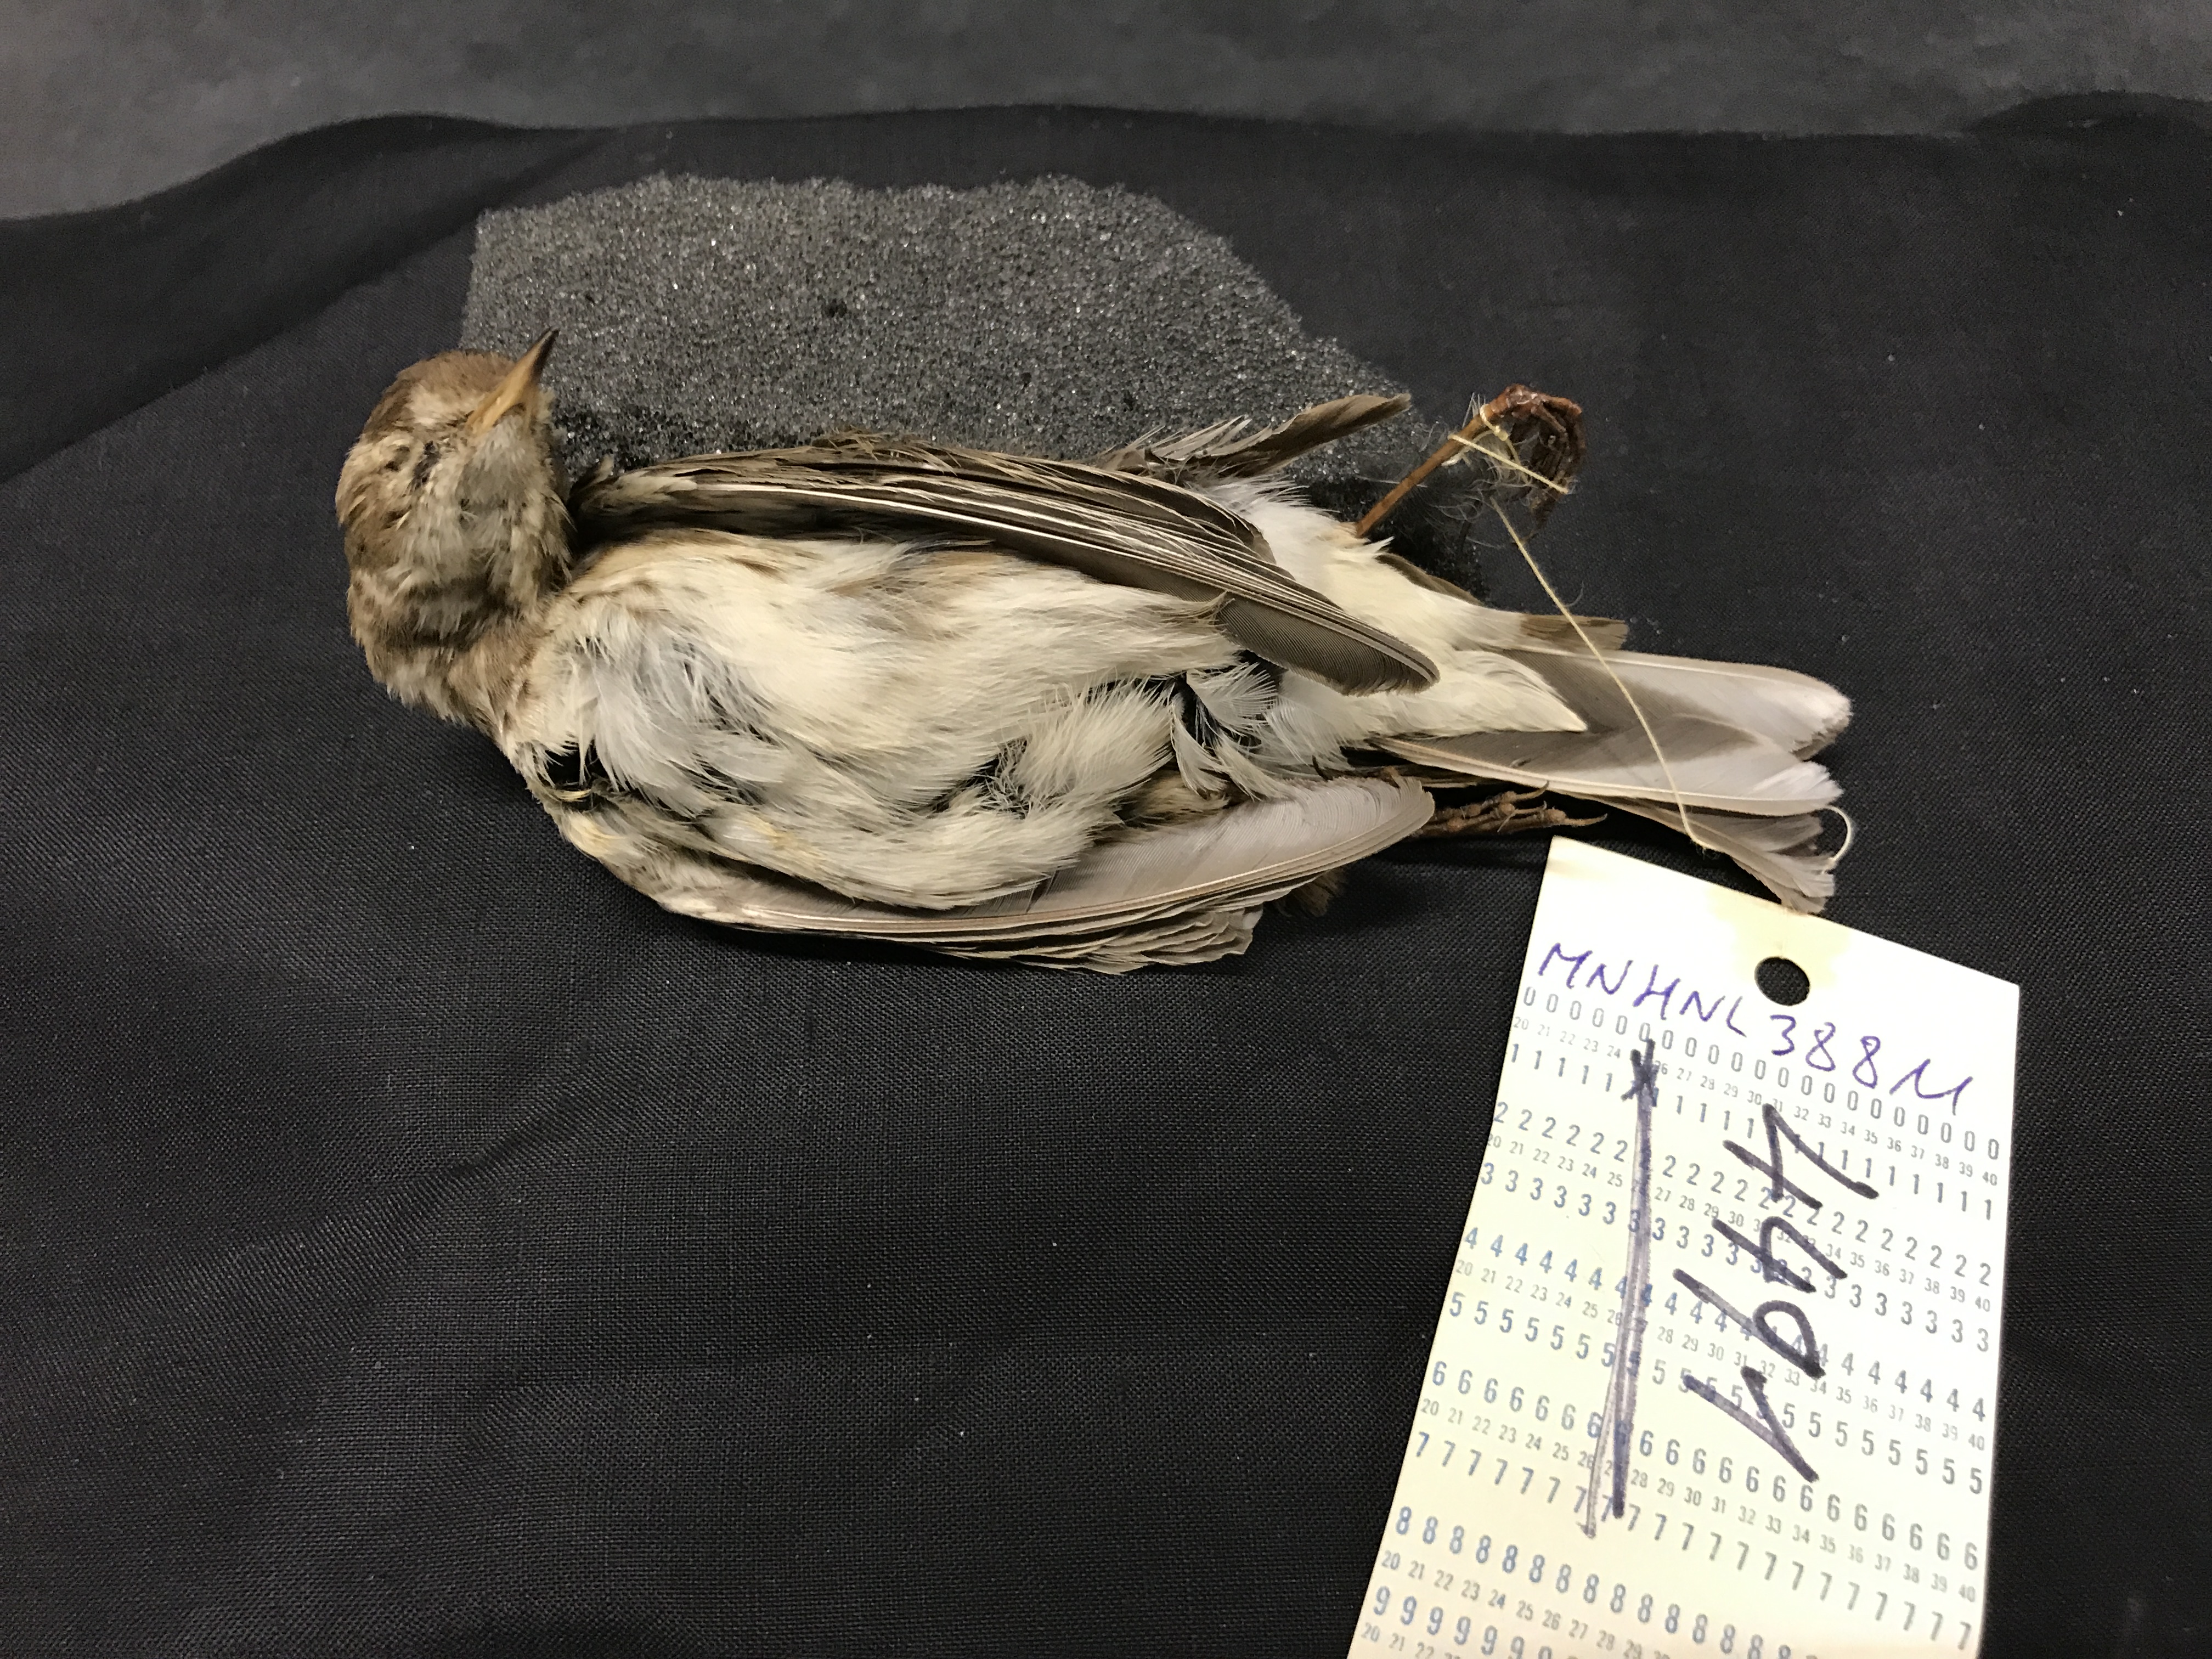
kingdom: Animalia
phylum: Chordata
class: Aves
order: Passeriformes
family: Motacillidae
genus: Anthus
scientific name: Anthus spinoletta
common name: Water pipit
